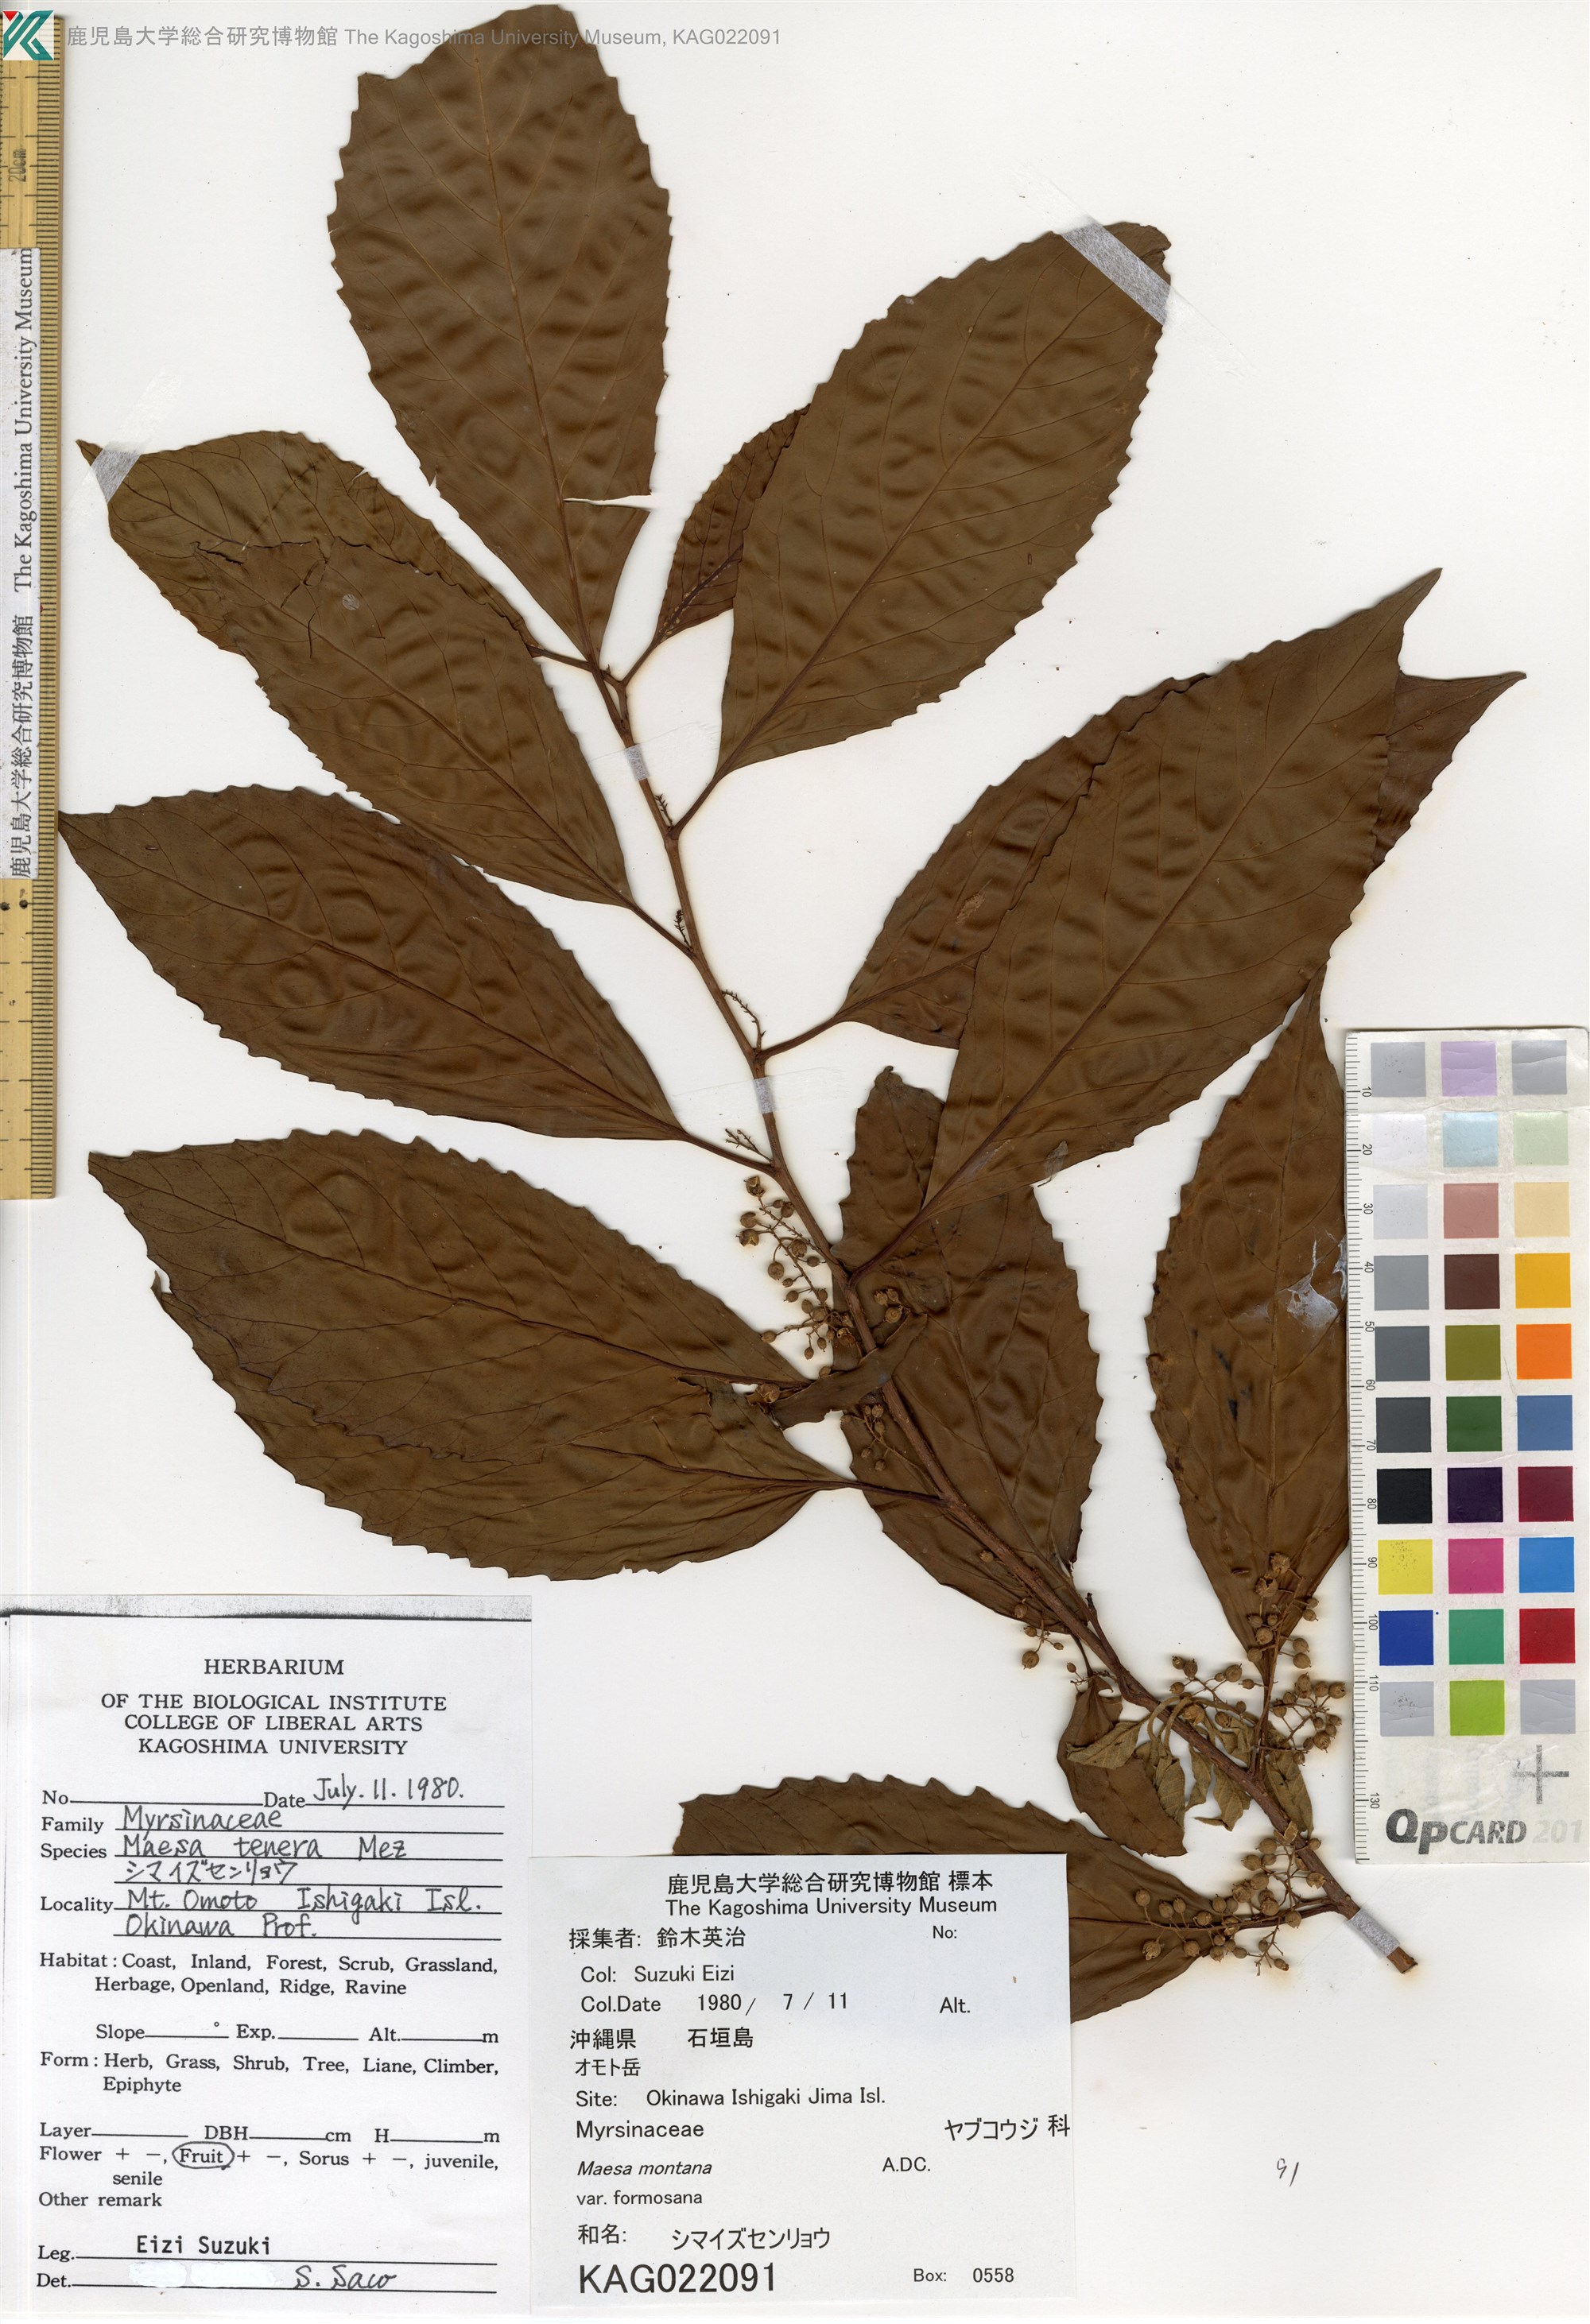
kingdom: Plantae
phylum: Tracheophyta
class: Magnoliopsida
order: Ericales
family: Primulaceae
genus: Maesa
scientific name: Maesa perlaria
